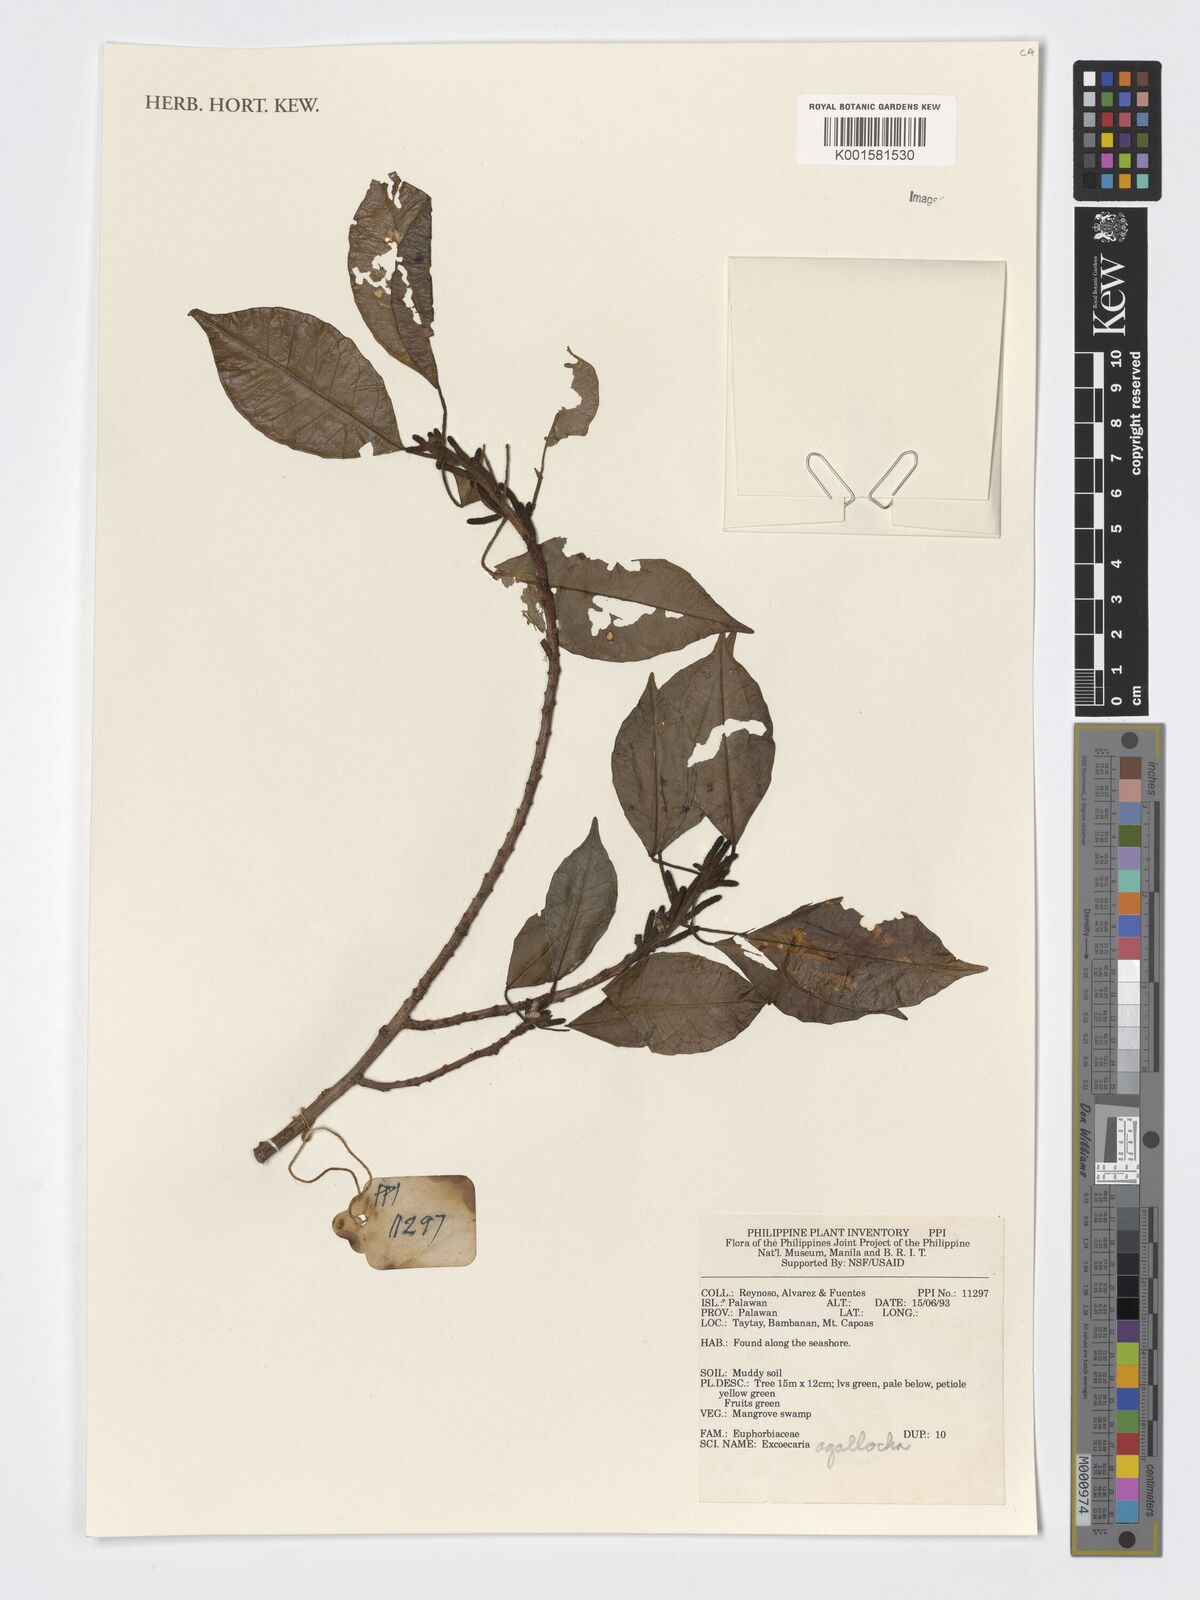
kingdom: Plantae
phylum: Tracheophyta
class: Magnoliopsida
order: Malpighiales
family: Euphorbiaceae
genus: Excoecaria
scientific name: Excoecaria agallocha
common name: River poisontree
